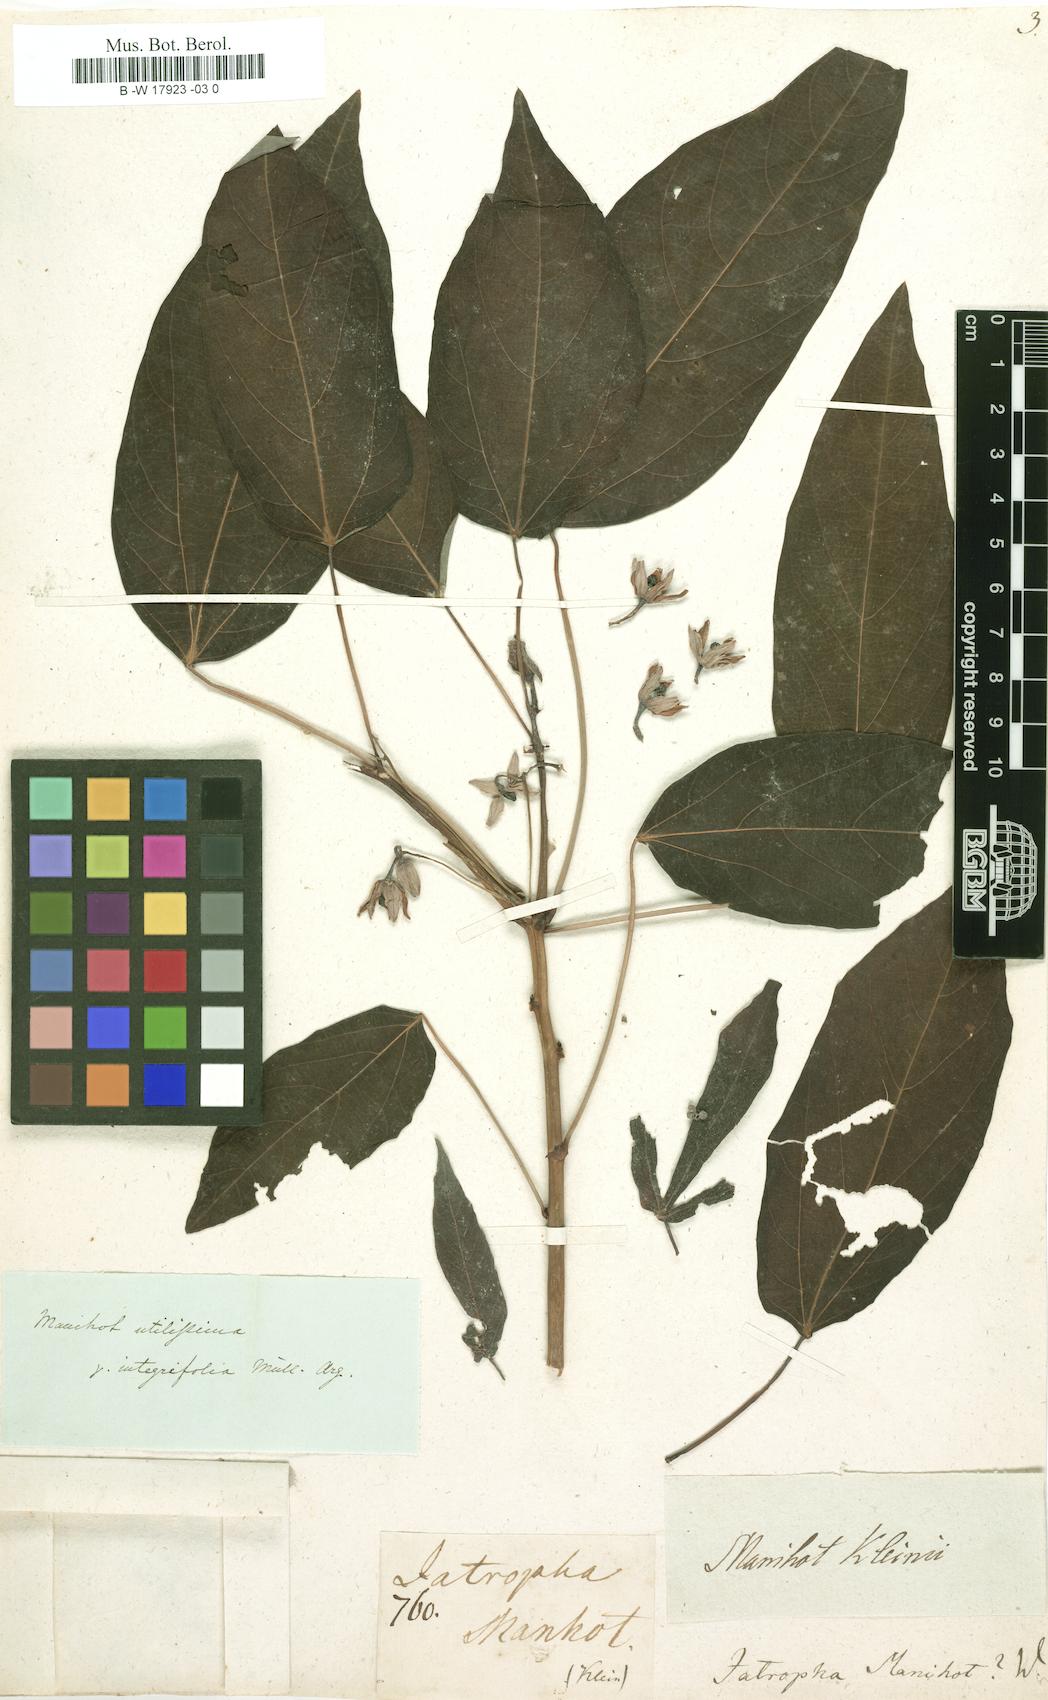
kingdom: Plantae
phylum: Tracheophyta
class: Magnoliopsida
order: Malpighiales
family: Euphorbiaceae
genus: Manihot
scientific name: Manihot esculenta
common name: Cassava
